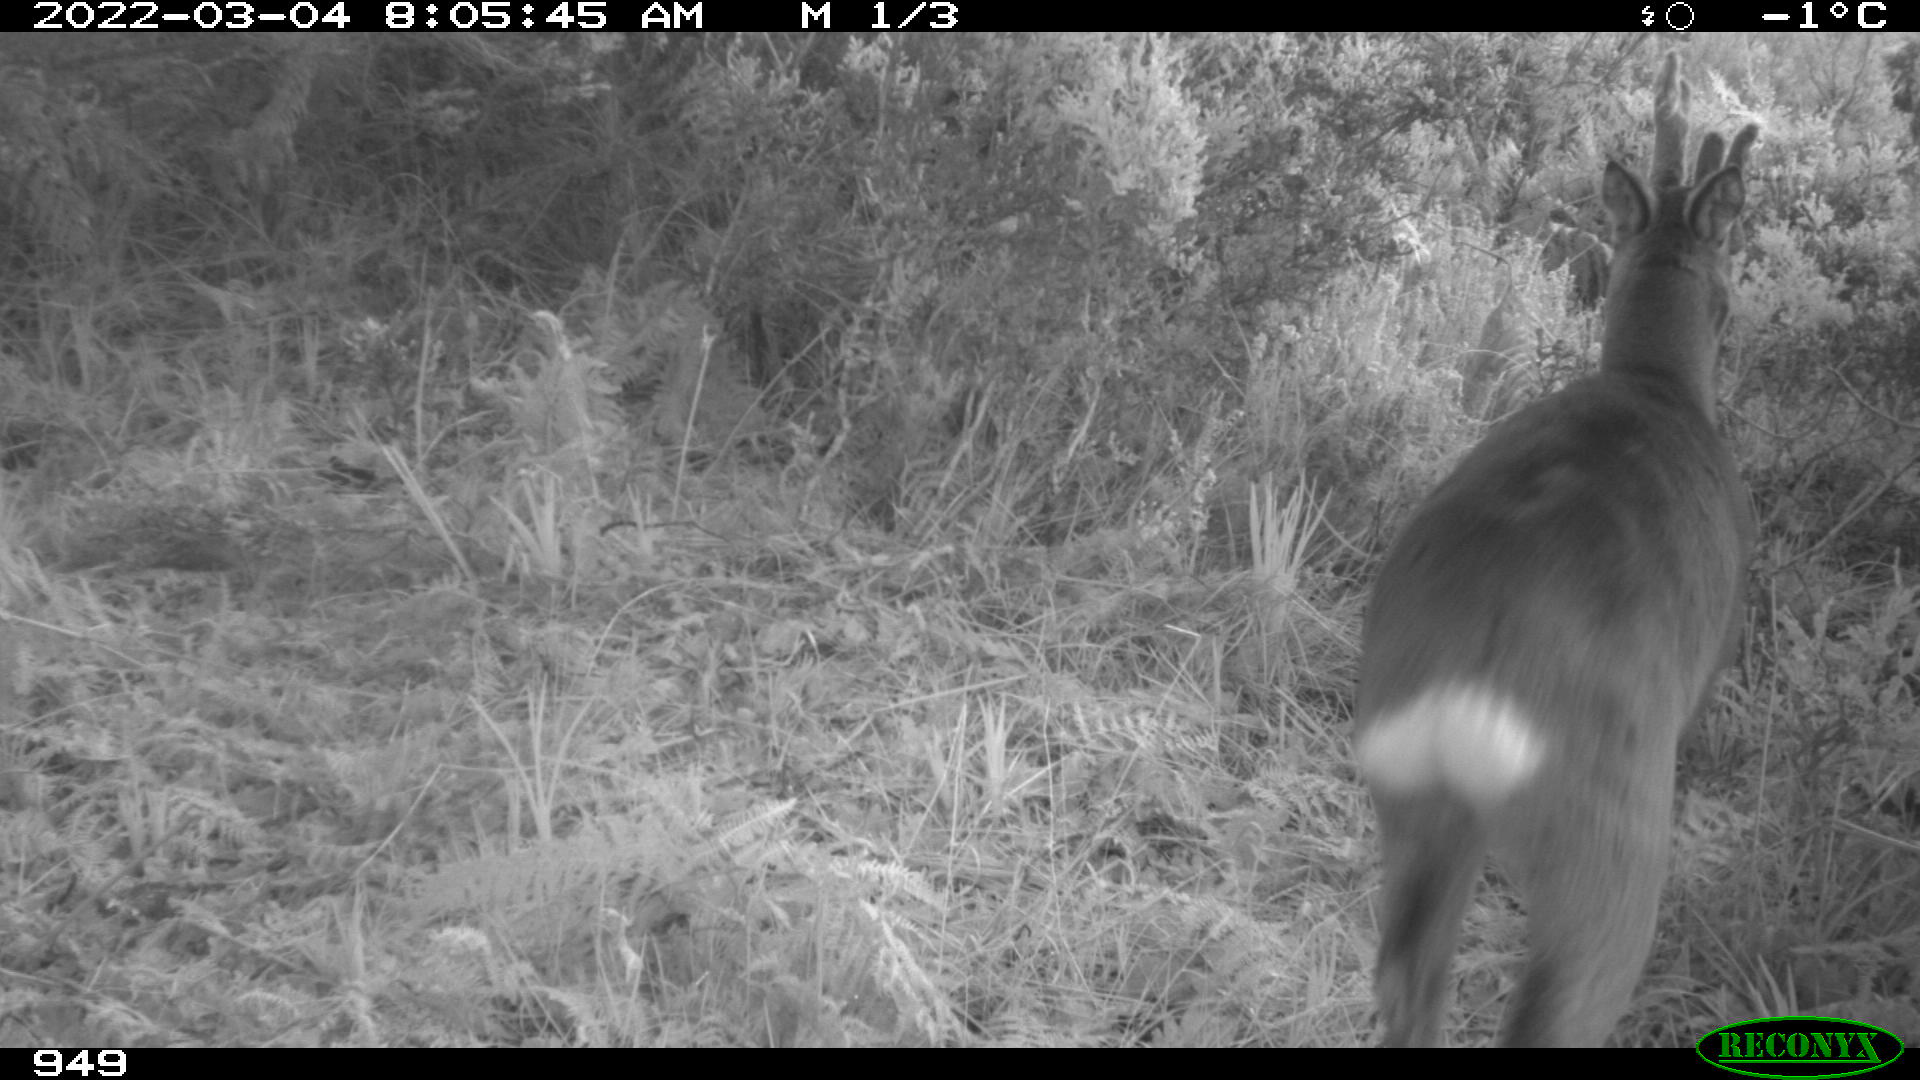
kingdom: Animalia
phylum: Chordata
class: Mammalia
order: Artiodactyla
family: Cervidae
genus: Capreolus
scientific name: Capreolus capreolus
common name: Western roe deer
